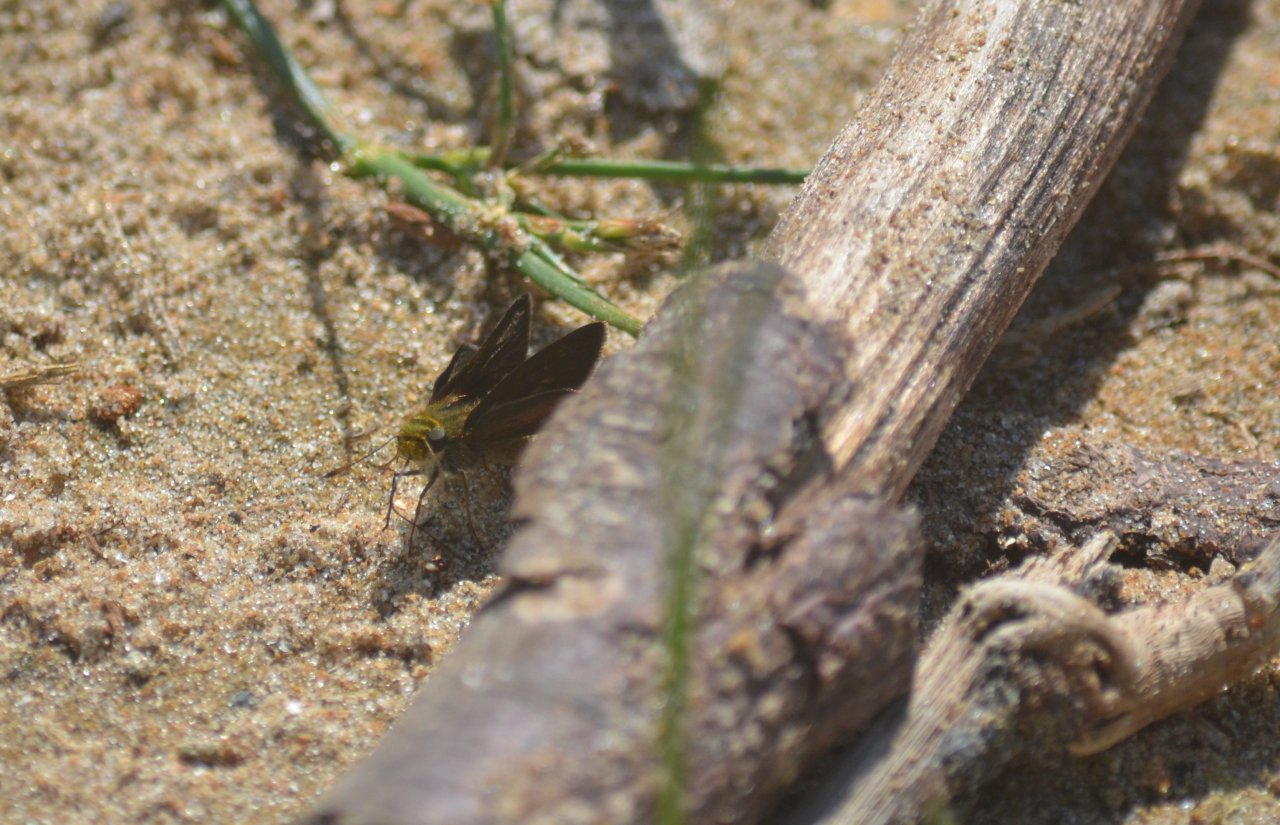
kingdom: Animalia
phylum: Arthropoda
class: Insecta
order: Lepidoptera
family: Hesperiidae
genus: Euphyes
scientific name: Euphyes vestris
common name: Dun Skipper
